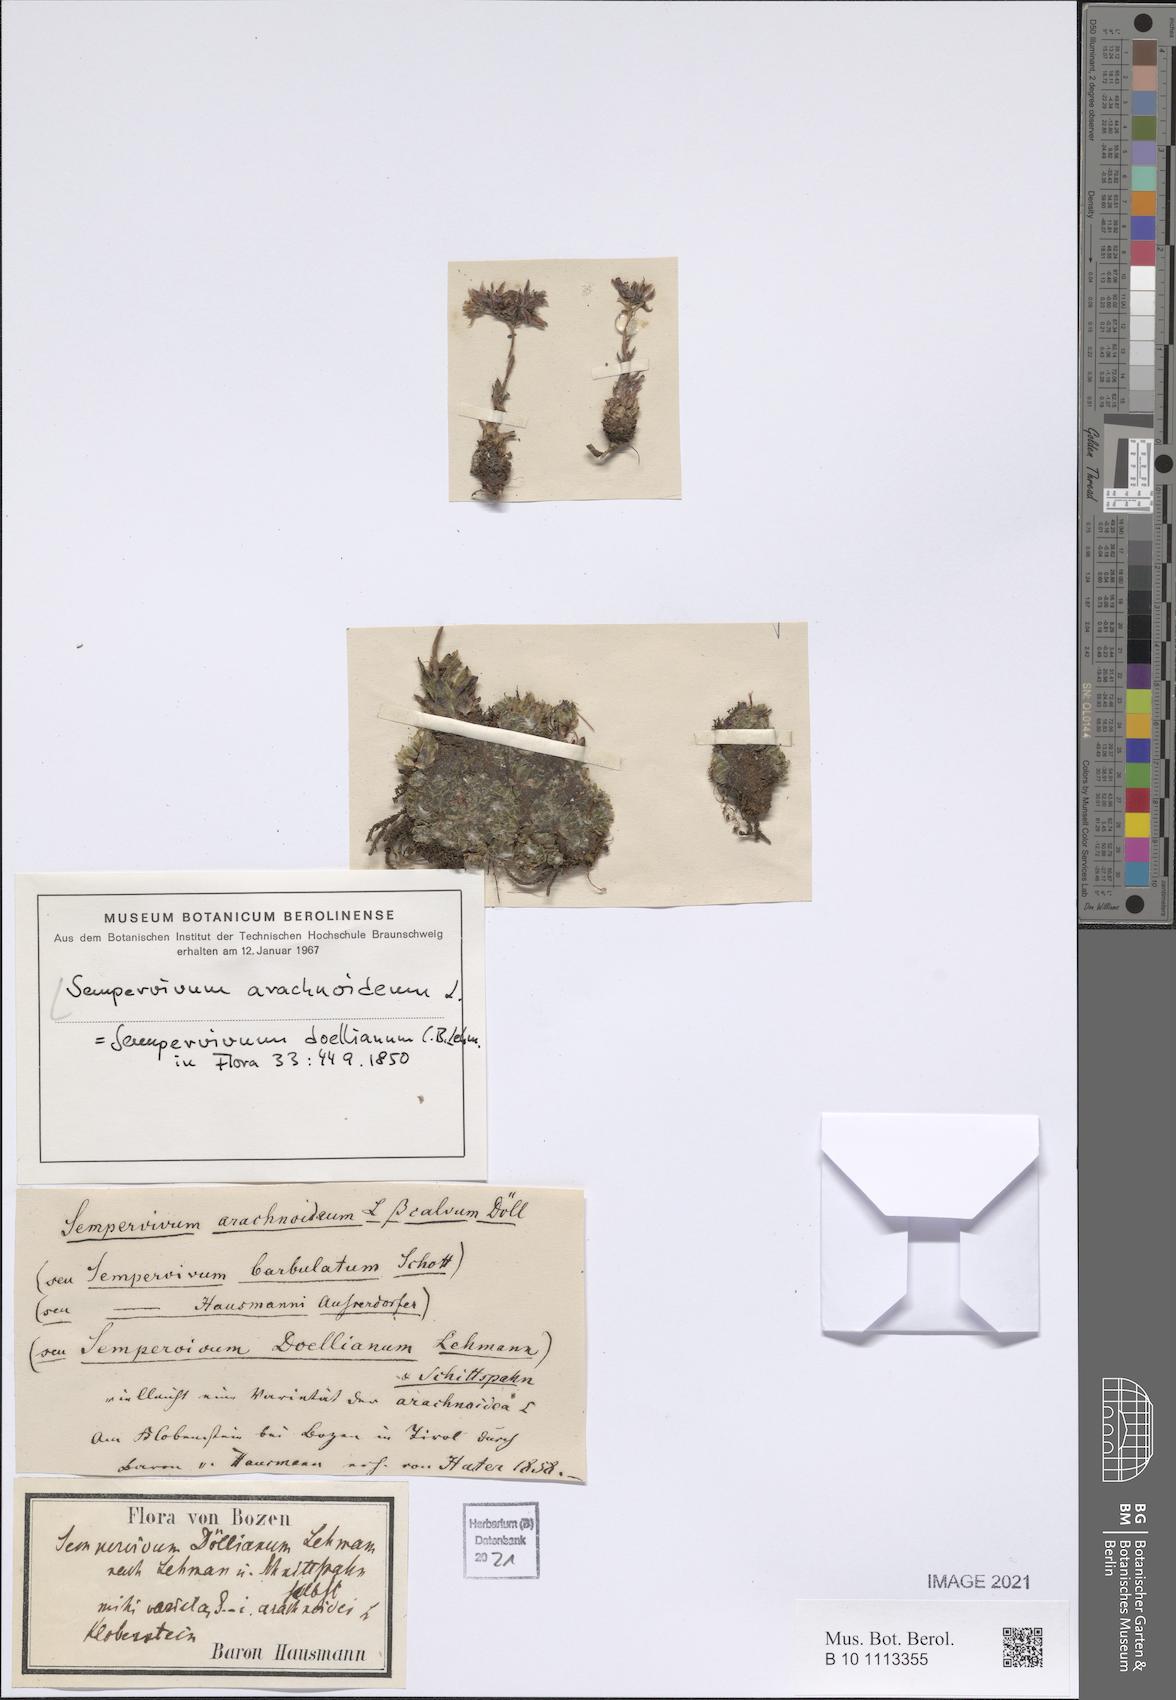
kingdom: Plantae
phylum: Tracheophyta
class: Magnoliopsida
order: Saxifragales
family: Crassulaceae
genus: Sempervivum
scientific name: Sempervivum arachnoideum
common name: Cobweb house-leek
